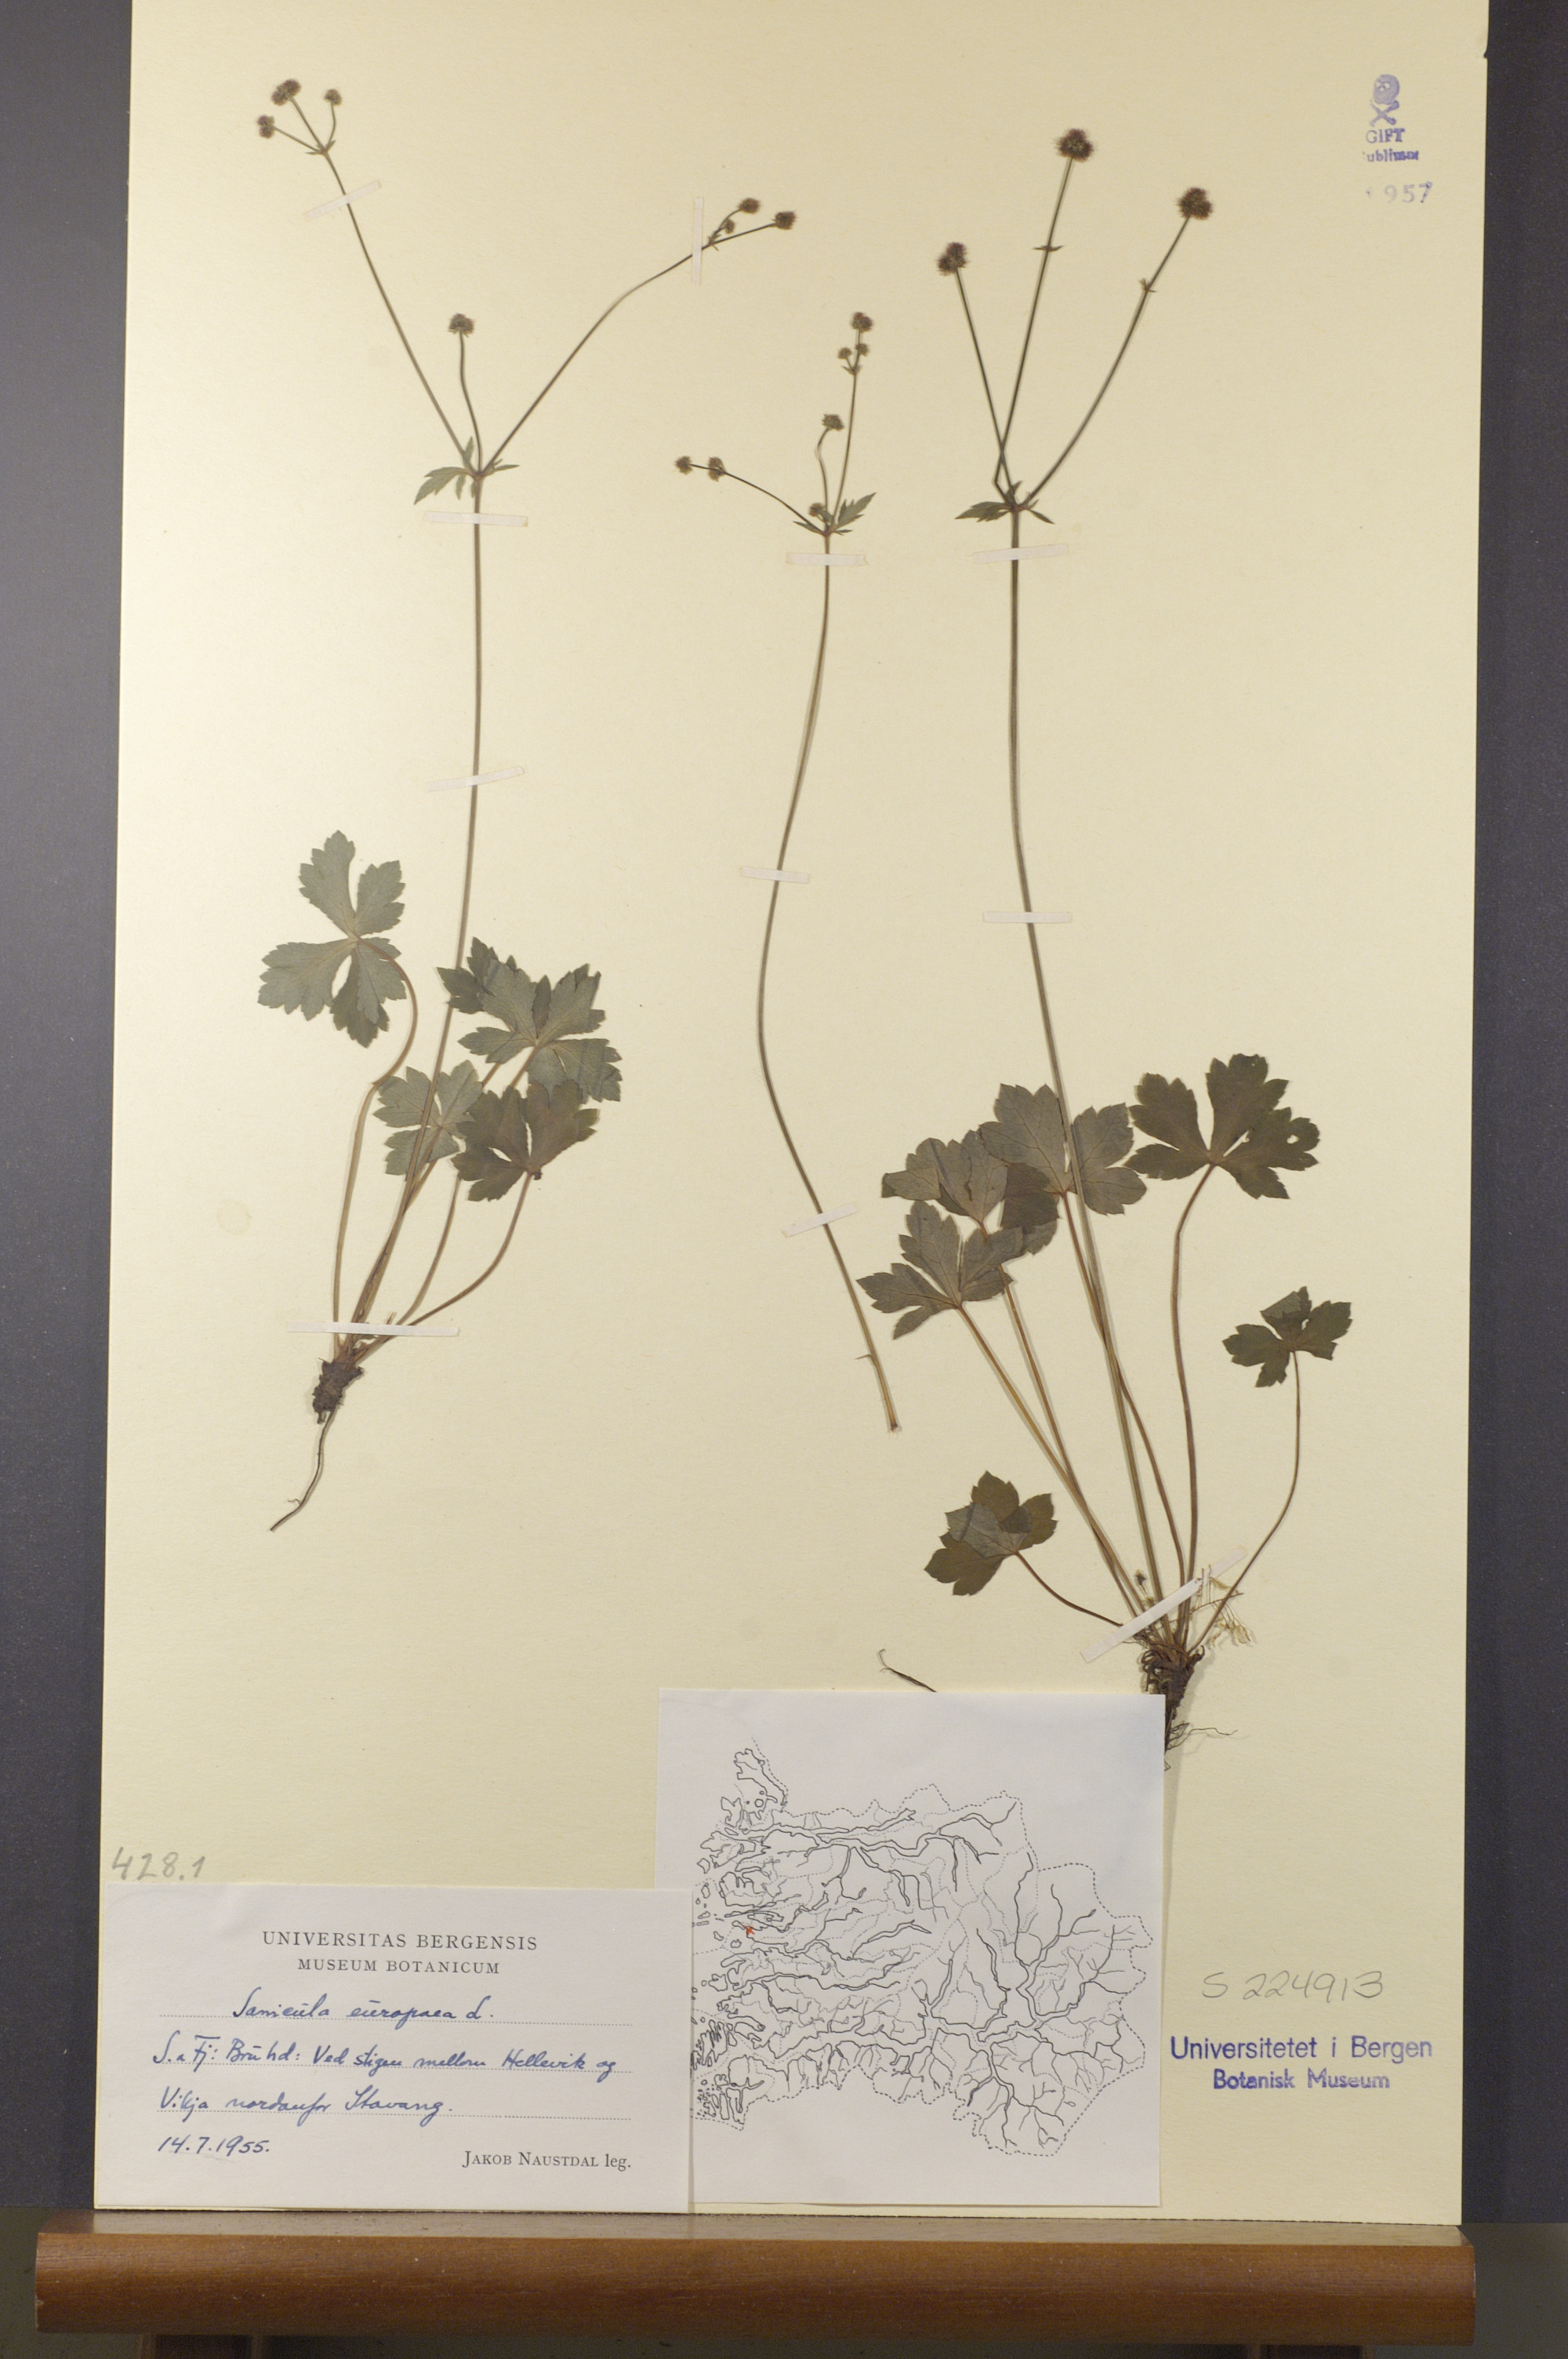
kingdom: Plantae
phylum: Tracheophyta
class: Magnoliopsida
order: Apiales
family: Apiaceae
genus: Sanicula
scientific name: Sanicula europaea
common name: Sanicle
